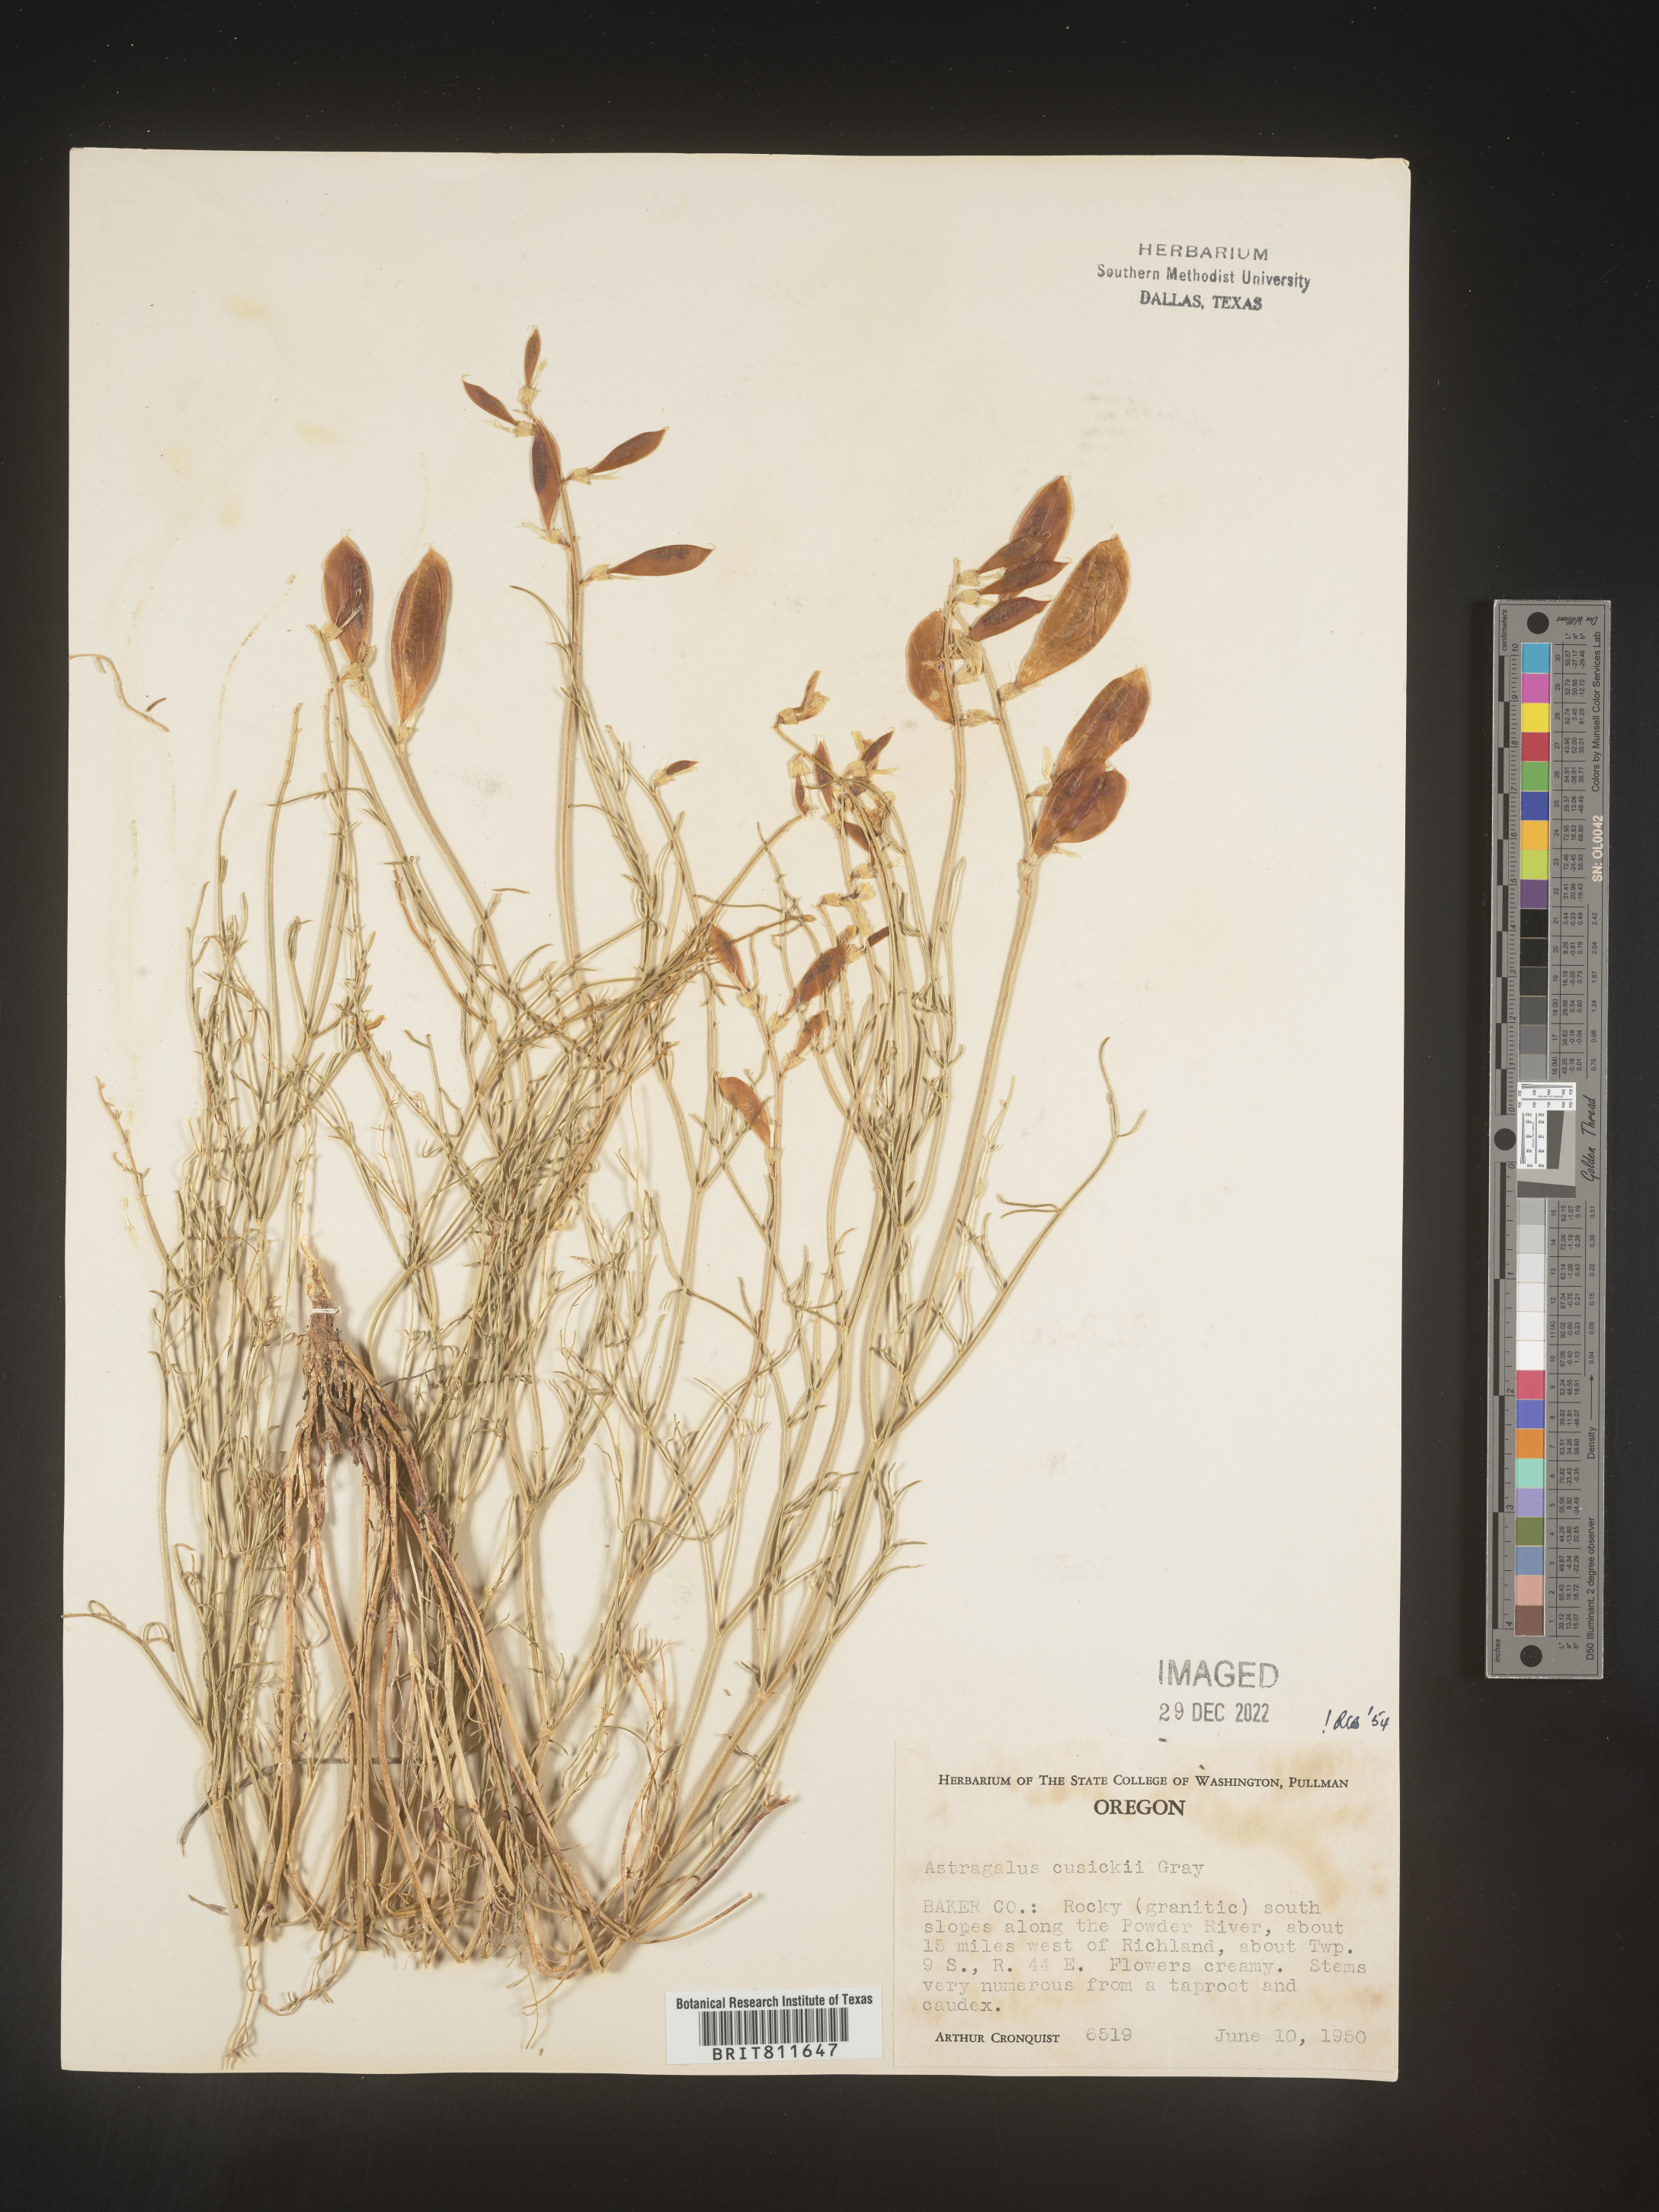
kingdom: Plantae
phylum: Tracheophyta
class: Magnoliopsida
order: Fabales
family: Fabaceae
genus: Astragalus
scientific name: Astragalus eremiticus
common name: Hermit milk-vetch
